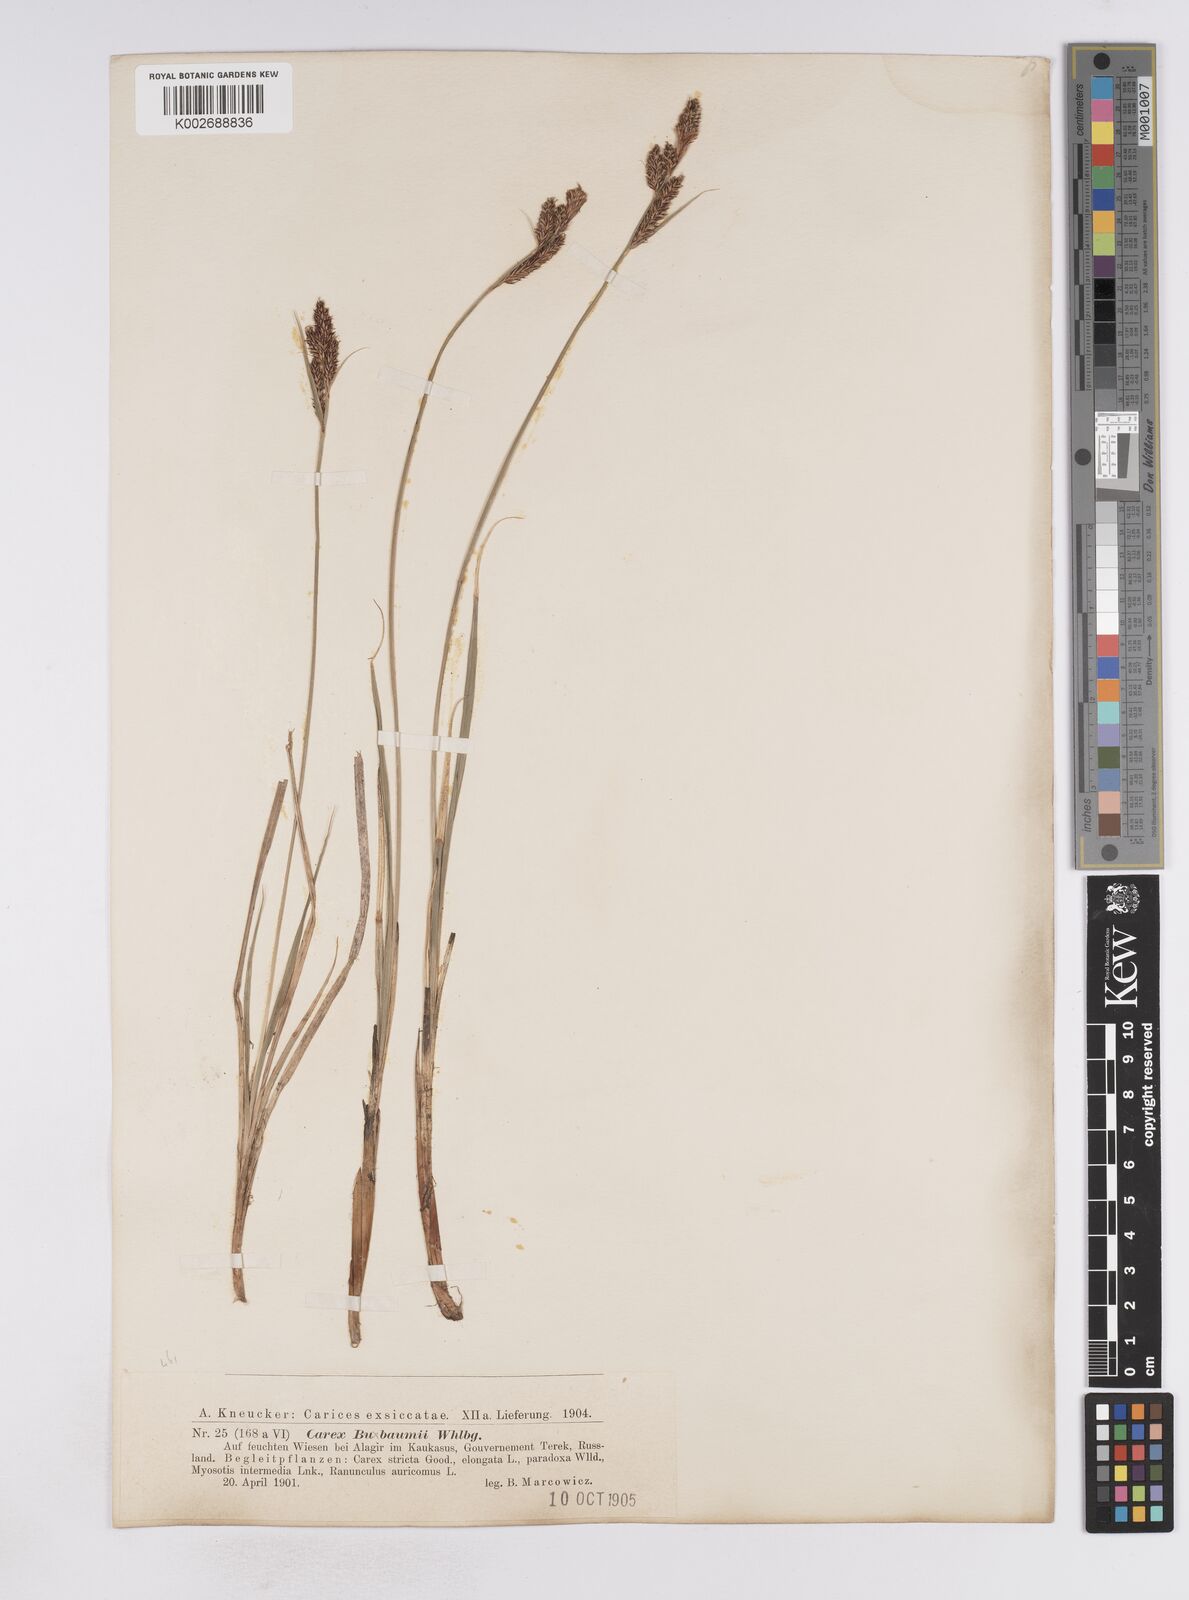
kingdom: Plantae
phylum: Tracheophyta
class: Liliopsida
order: Poales
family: Cyperaceae
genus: Carex
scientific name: Carex buxbaumii
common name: Club sedge
